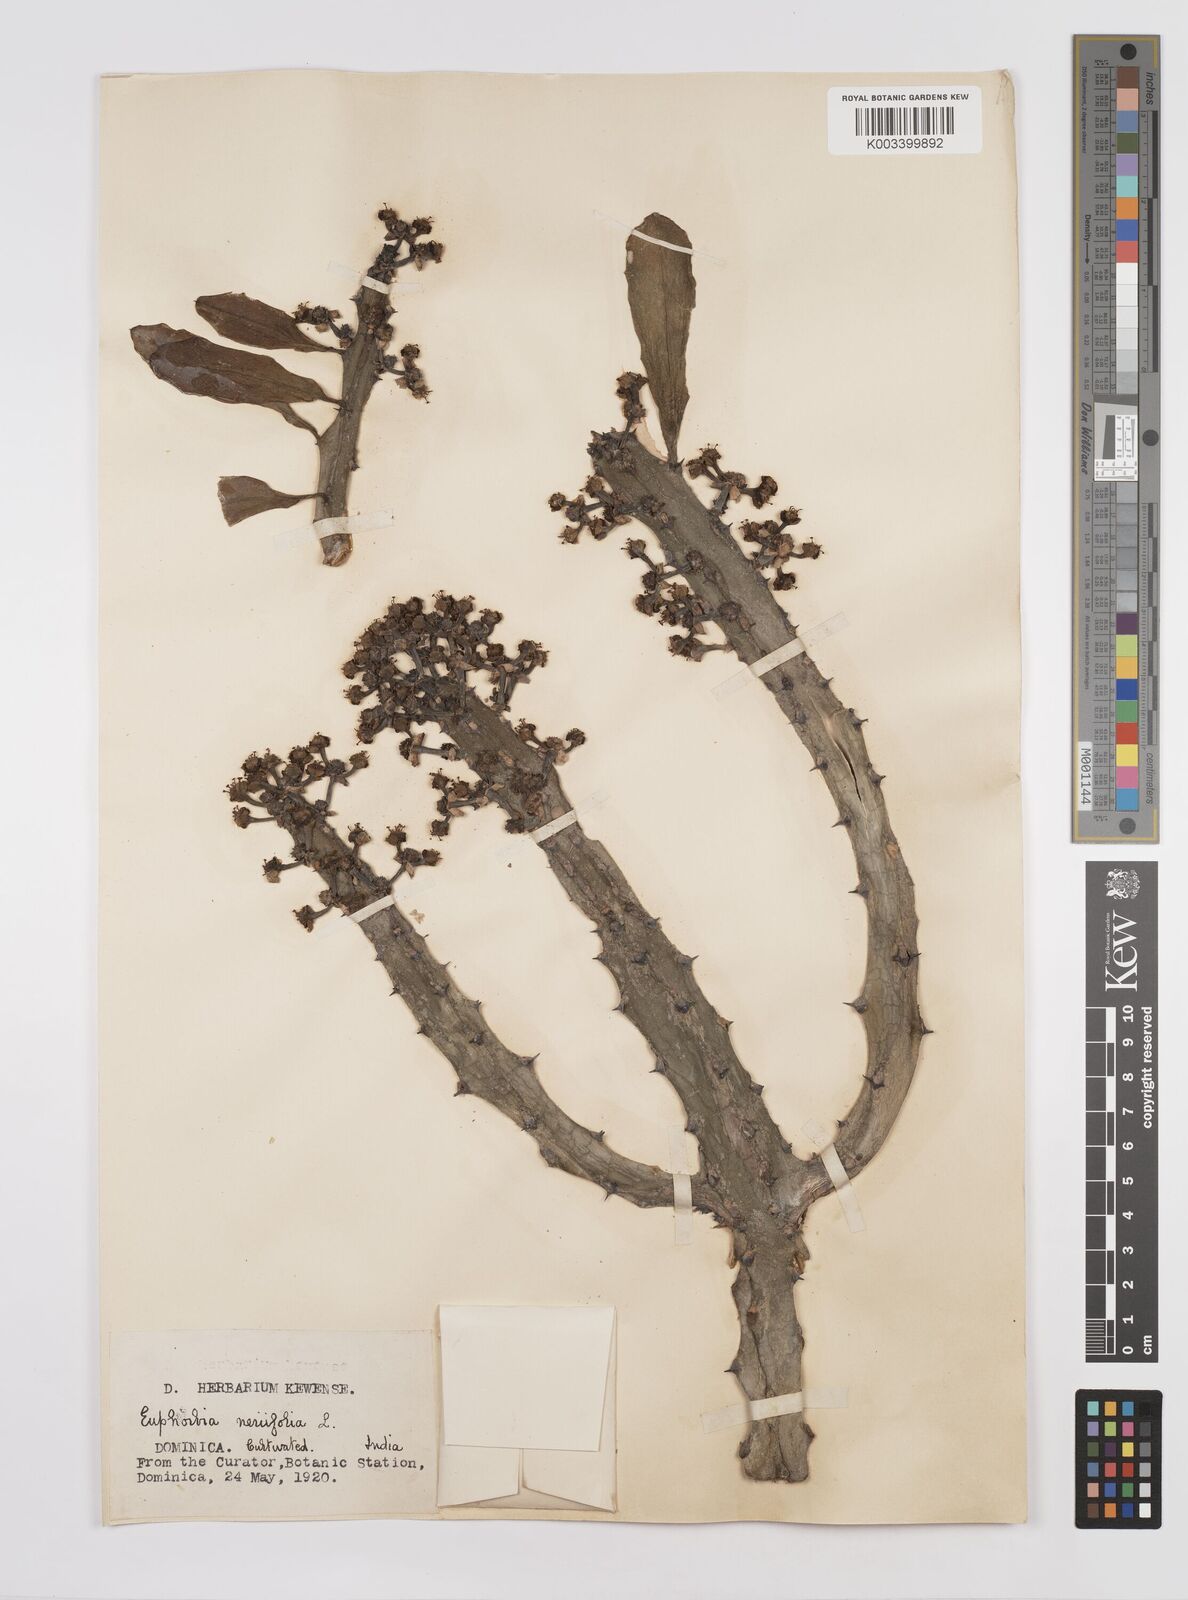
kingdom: Plantae
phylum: Tracheophyta
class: Magnoliopsida
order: Malpighiales
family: Euphorbiaceae
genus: Euphorbia
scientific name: Euphorbia
